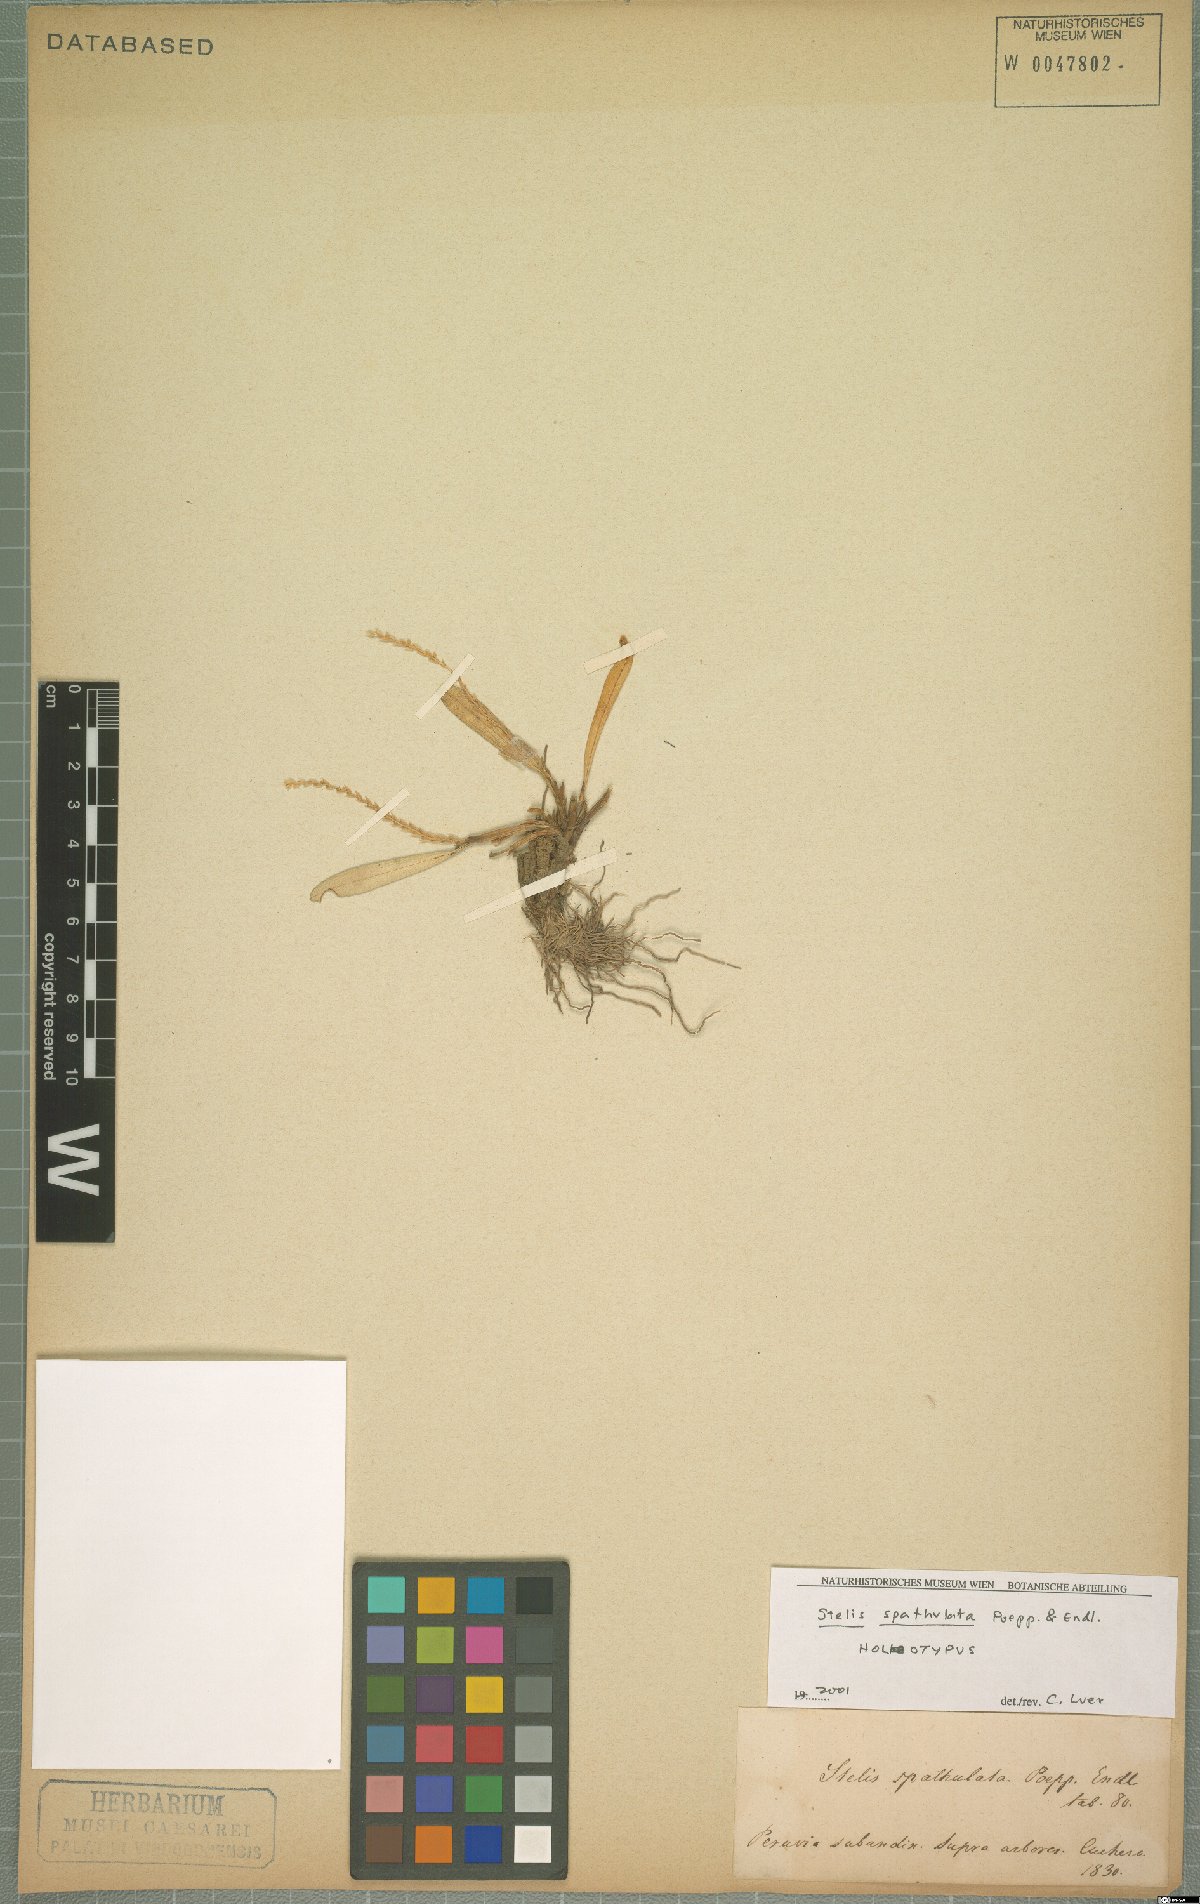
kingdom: Plantae
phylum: Tracheophyta
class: Liliopsida
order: Asparagales
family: Orchidaceae
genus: Stelis
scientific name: Stelis spathulata
